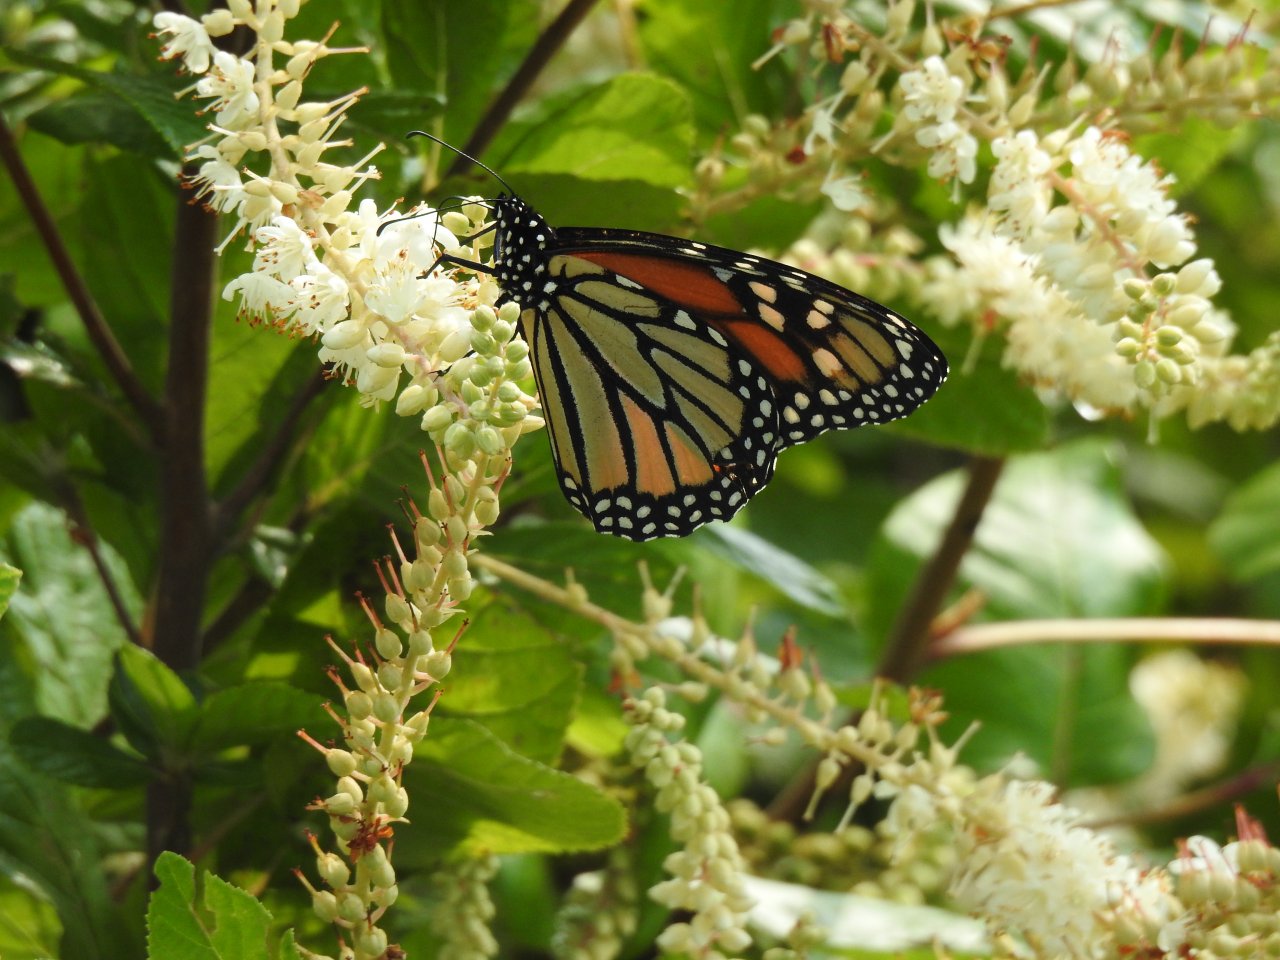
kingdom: Animalia
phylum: Arthropoda
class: Insecta
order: Lepidoptera
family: Nymphalidae
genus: Danaus
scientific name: Danaus plexippus
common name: Monarch
